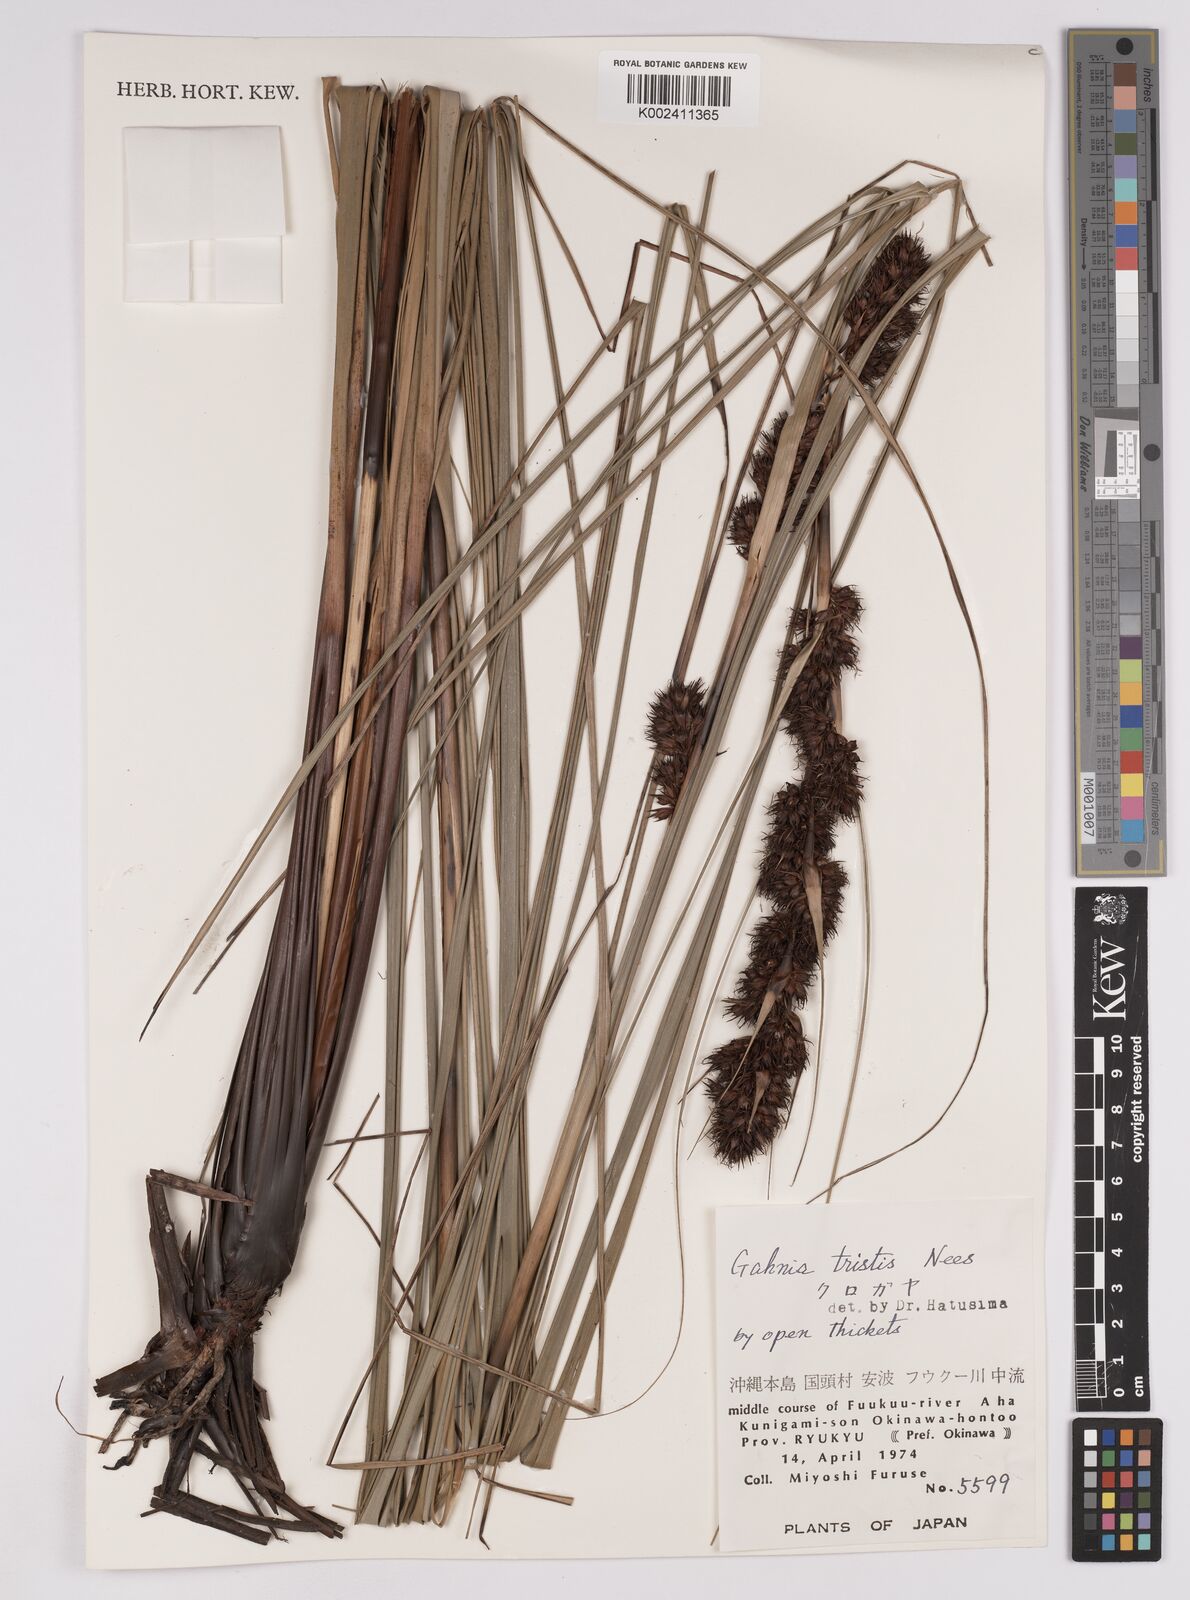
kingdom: Plantae
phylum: Tracheophyta
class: Liliopsida
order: Poales
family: Cyperaceae
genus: Gahnia
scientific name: Gahnia tristis
